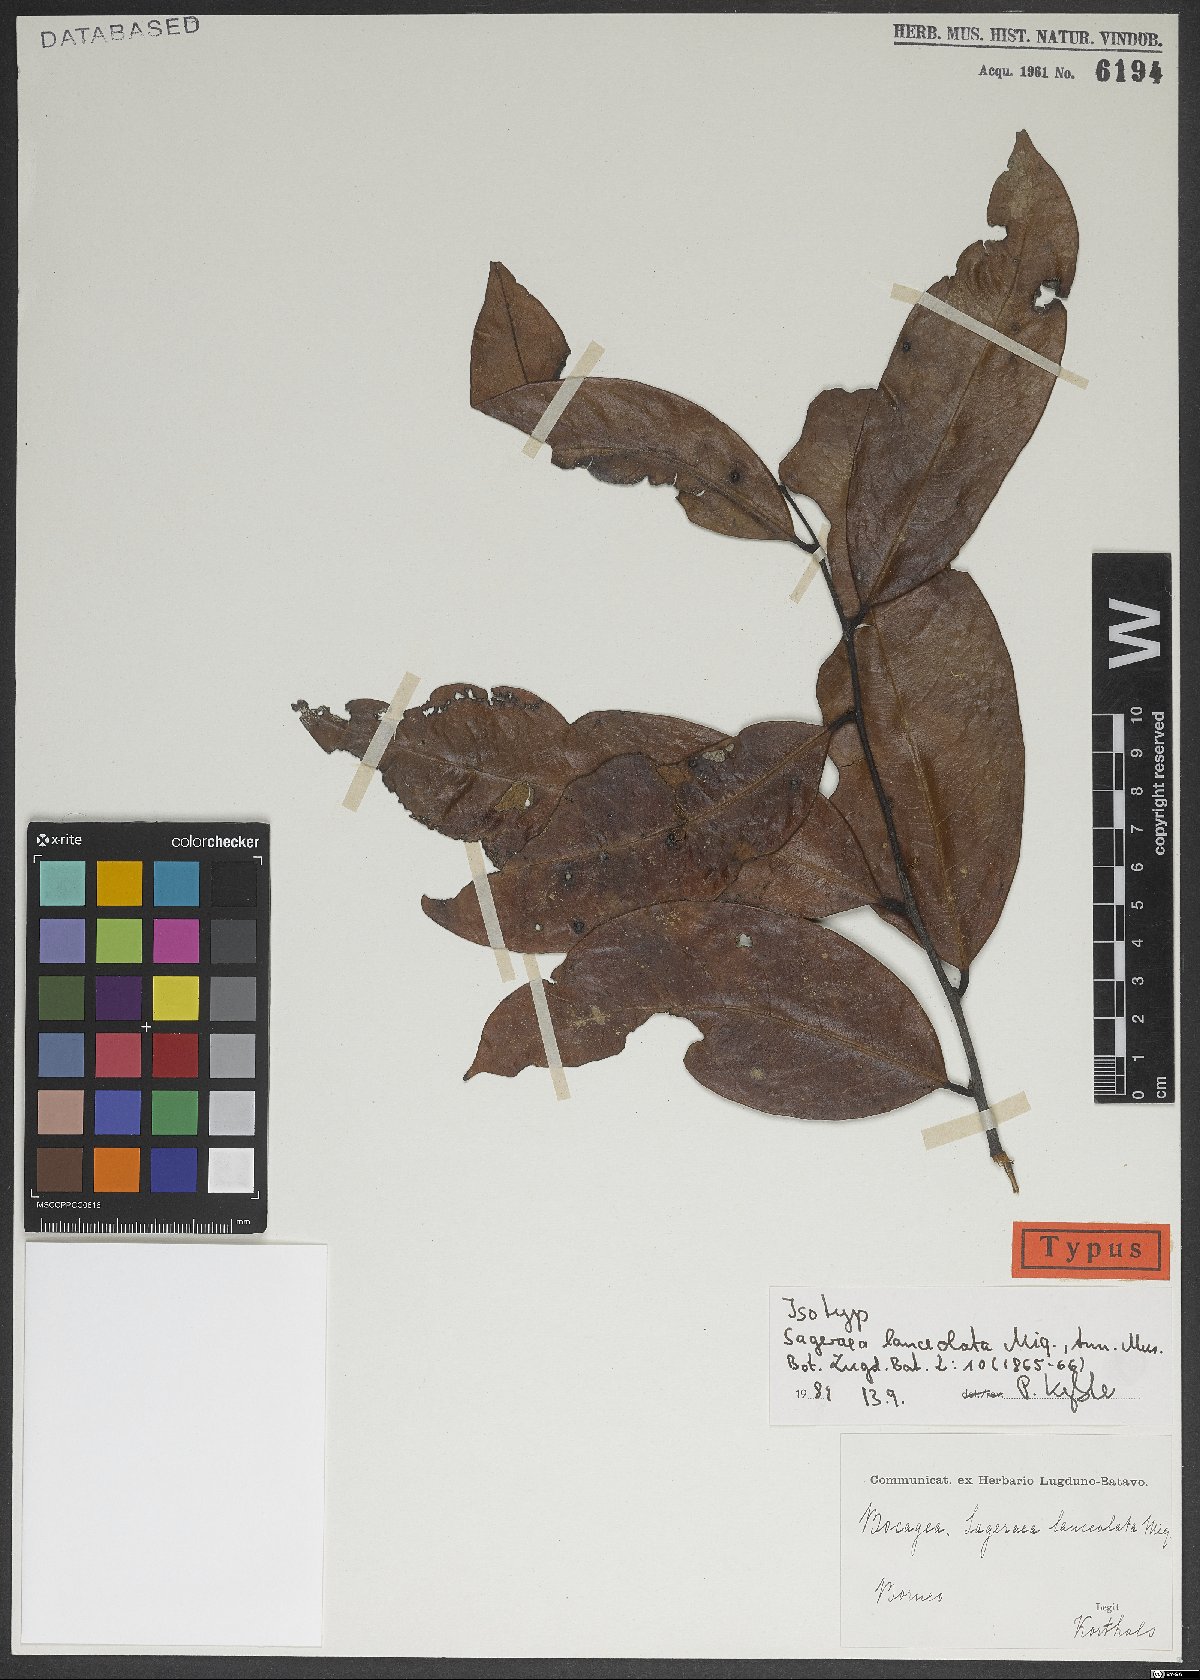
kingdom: Plantae
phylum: Tracheophyta
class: Magnoliopsida
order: Magnoliales
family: Annonaceae
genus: Sageraea
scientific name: Sageraea lanceolata
